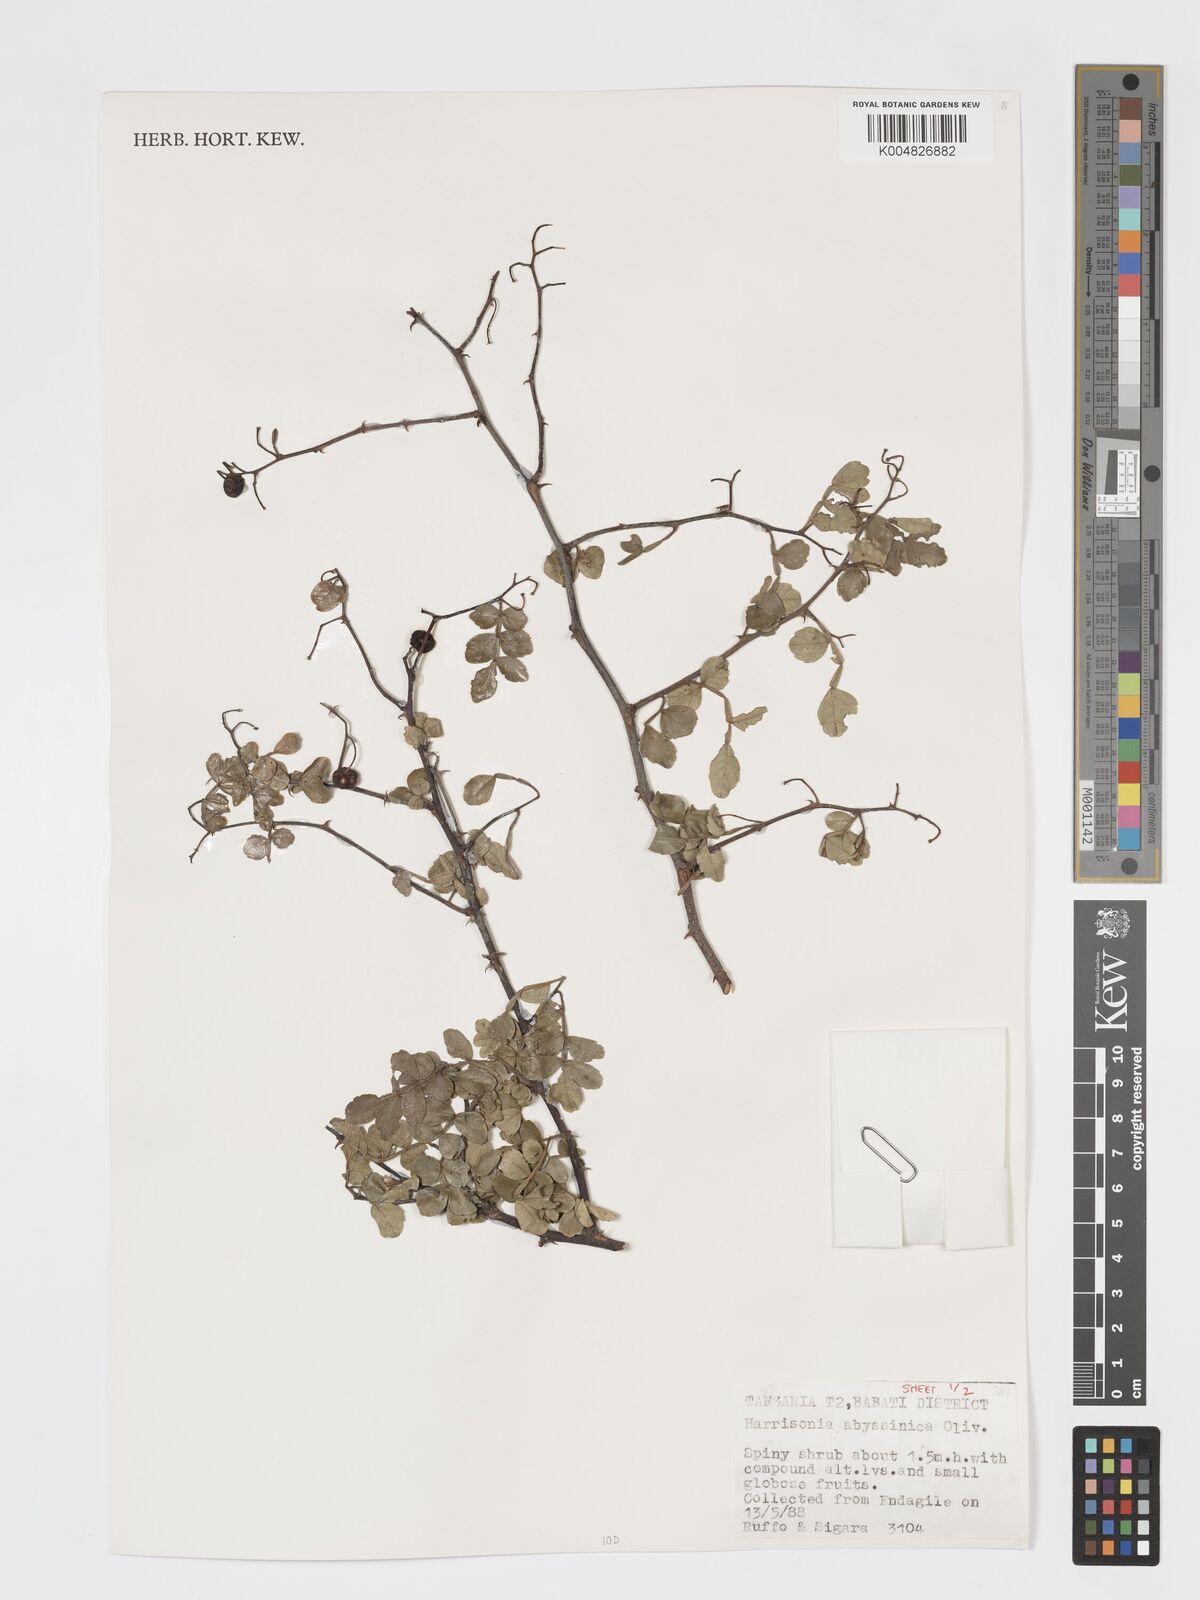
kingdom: Plantae
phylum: Tracheophyta
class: Magnoliopsida
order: Sapindales
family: Rutaceae
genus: Harrisonia
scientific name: Harrisonia abyssinica
